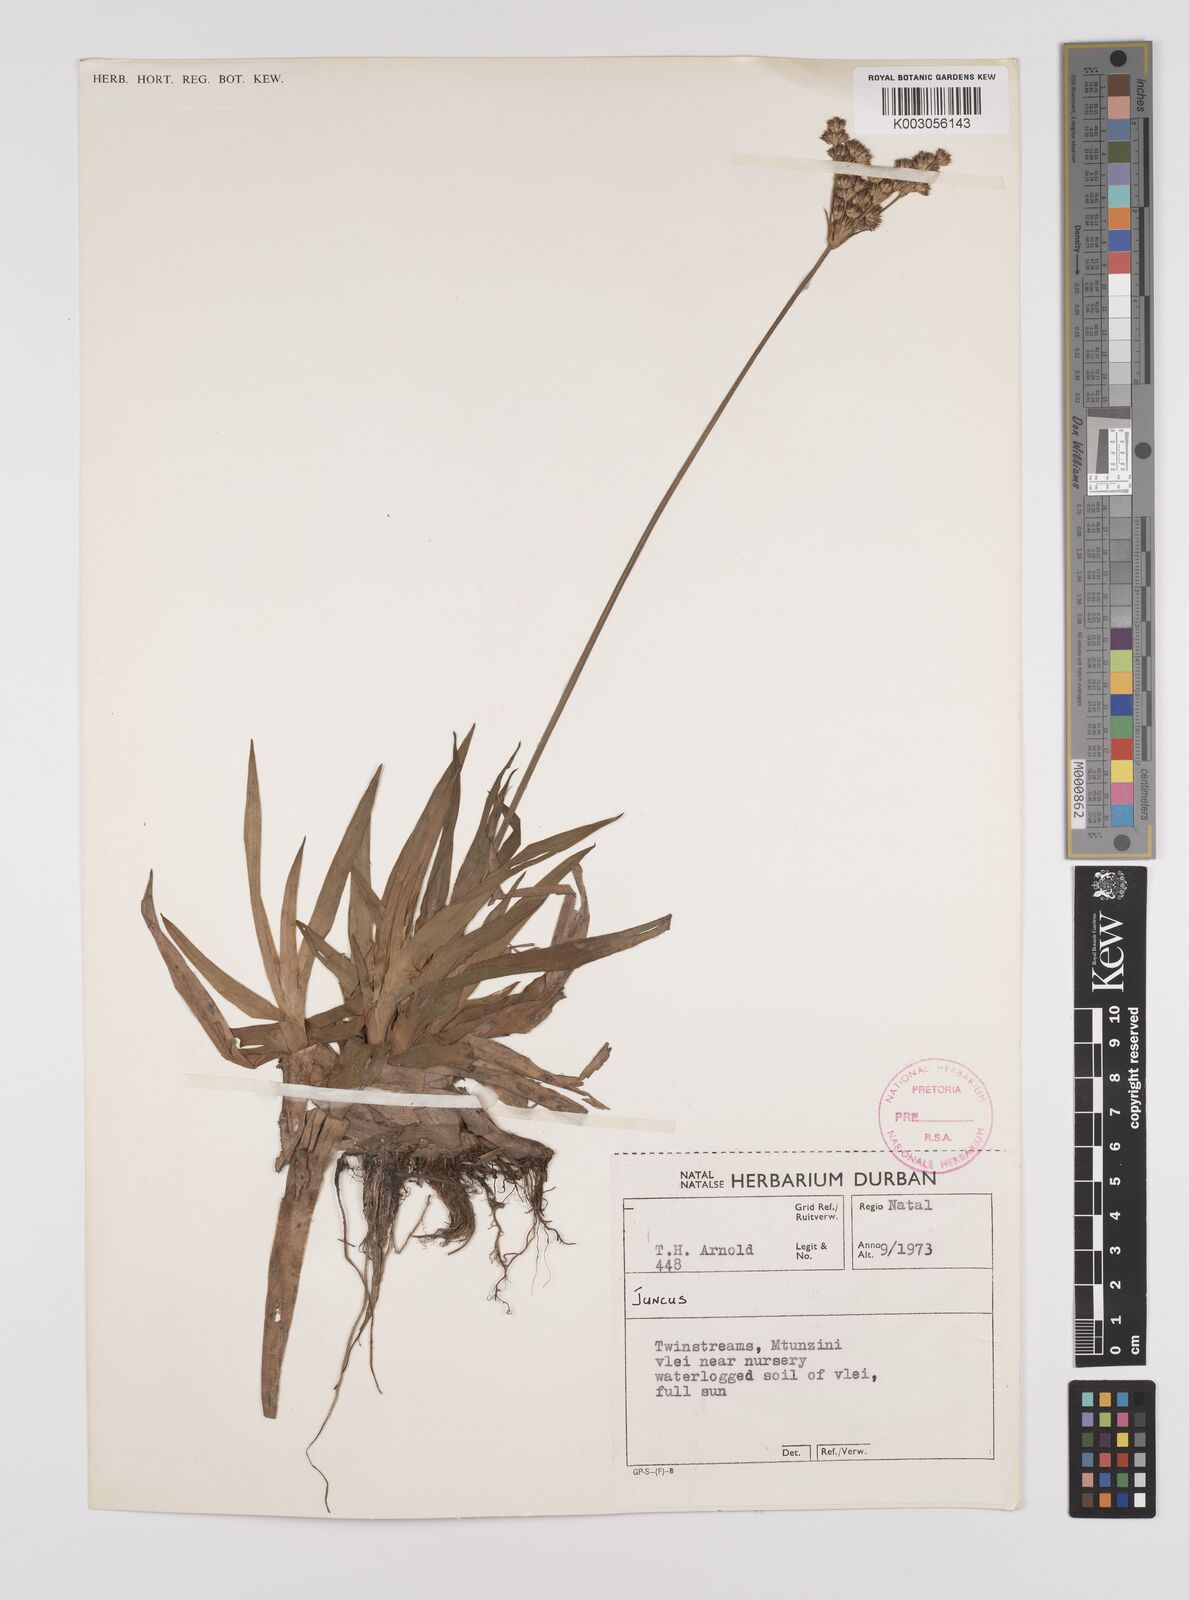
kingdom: Plantae
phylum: Tracheophyta
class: Liliopsida
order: Poales
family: Juncaceae
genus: Juncus
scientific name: Juncus
